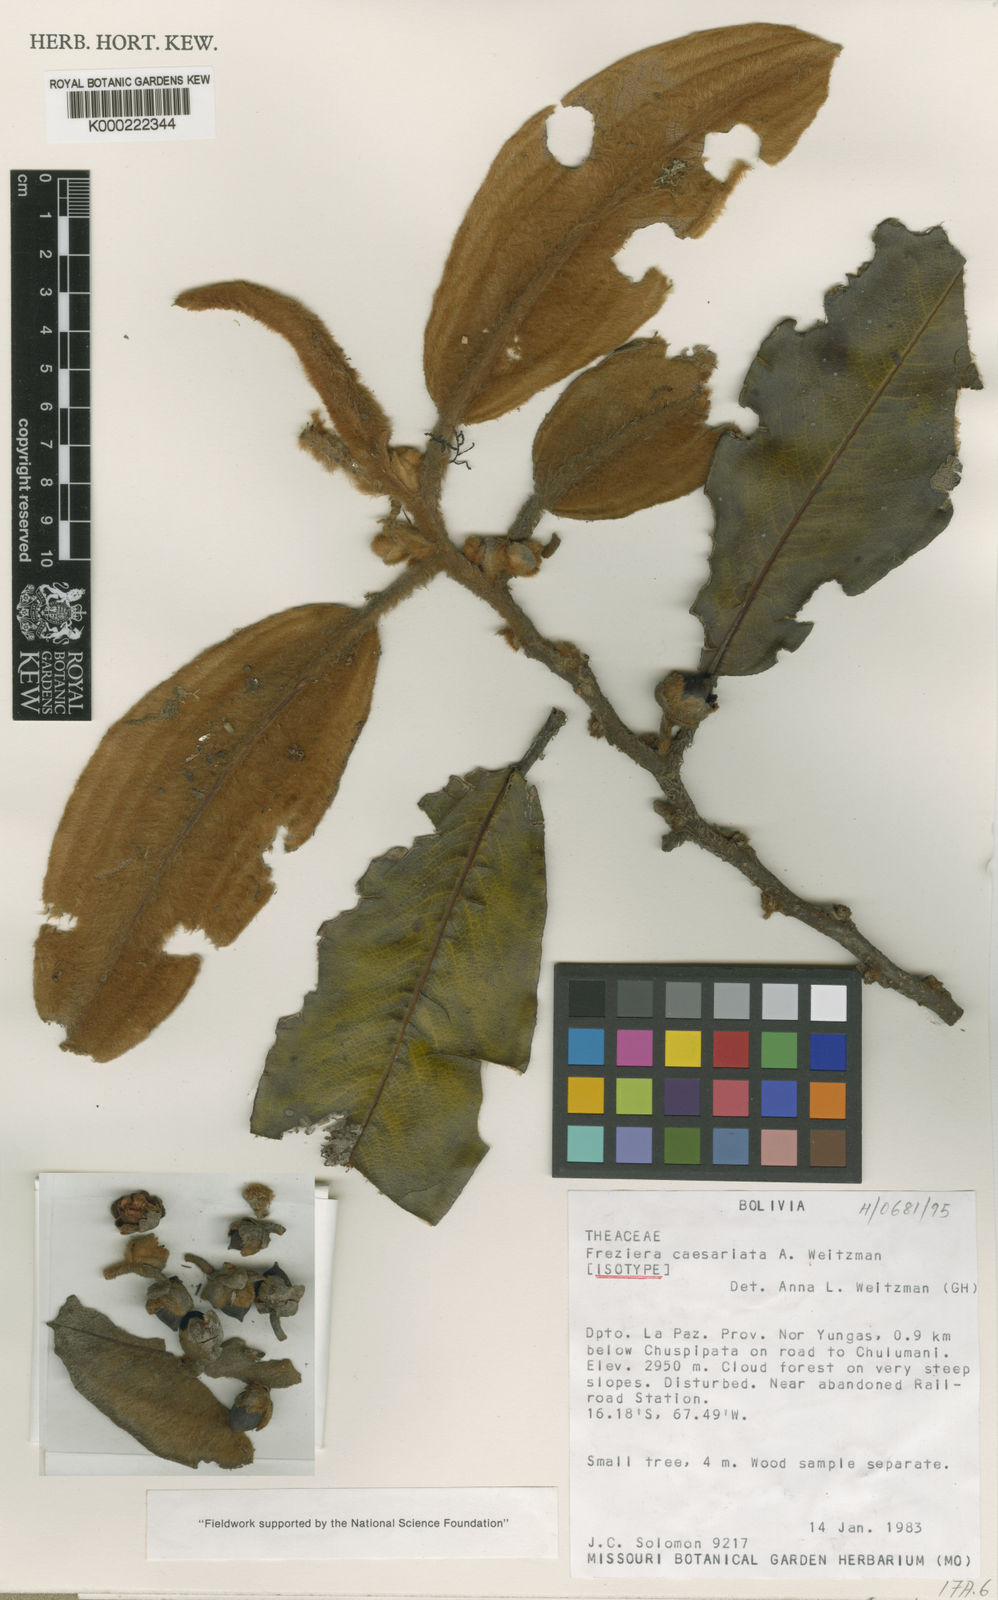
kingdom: Plantae
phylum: Tracheophyta
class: Magnoliopsida
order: Ericales
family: Pentaphylacaceae
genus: Freziera
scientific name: Freziera
